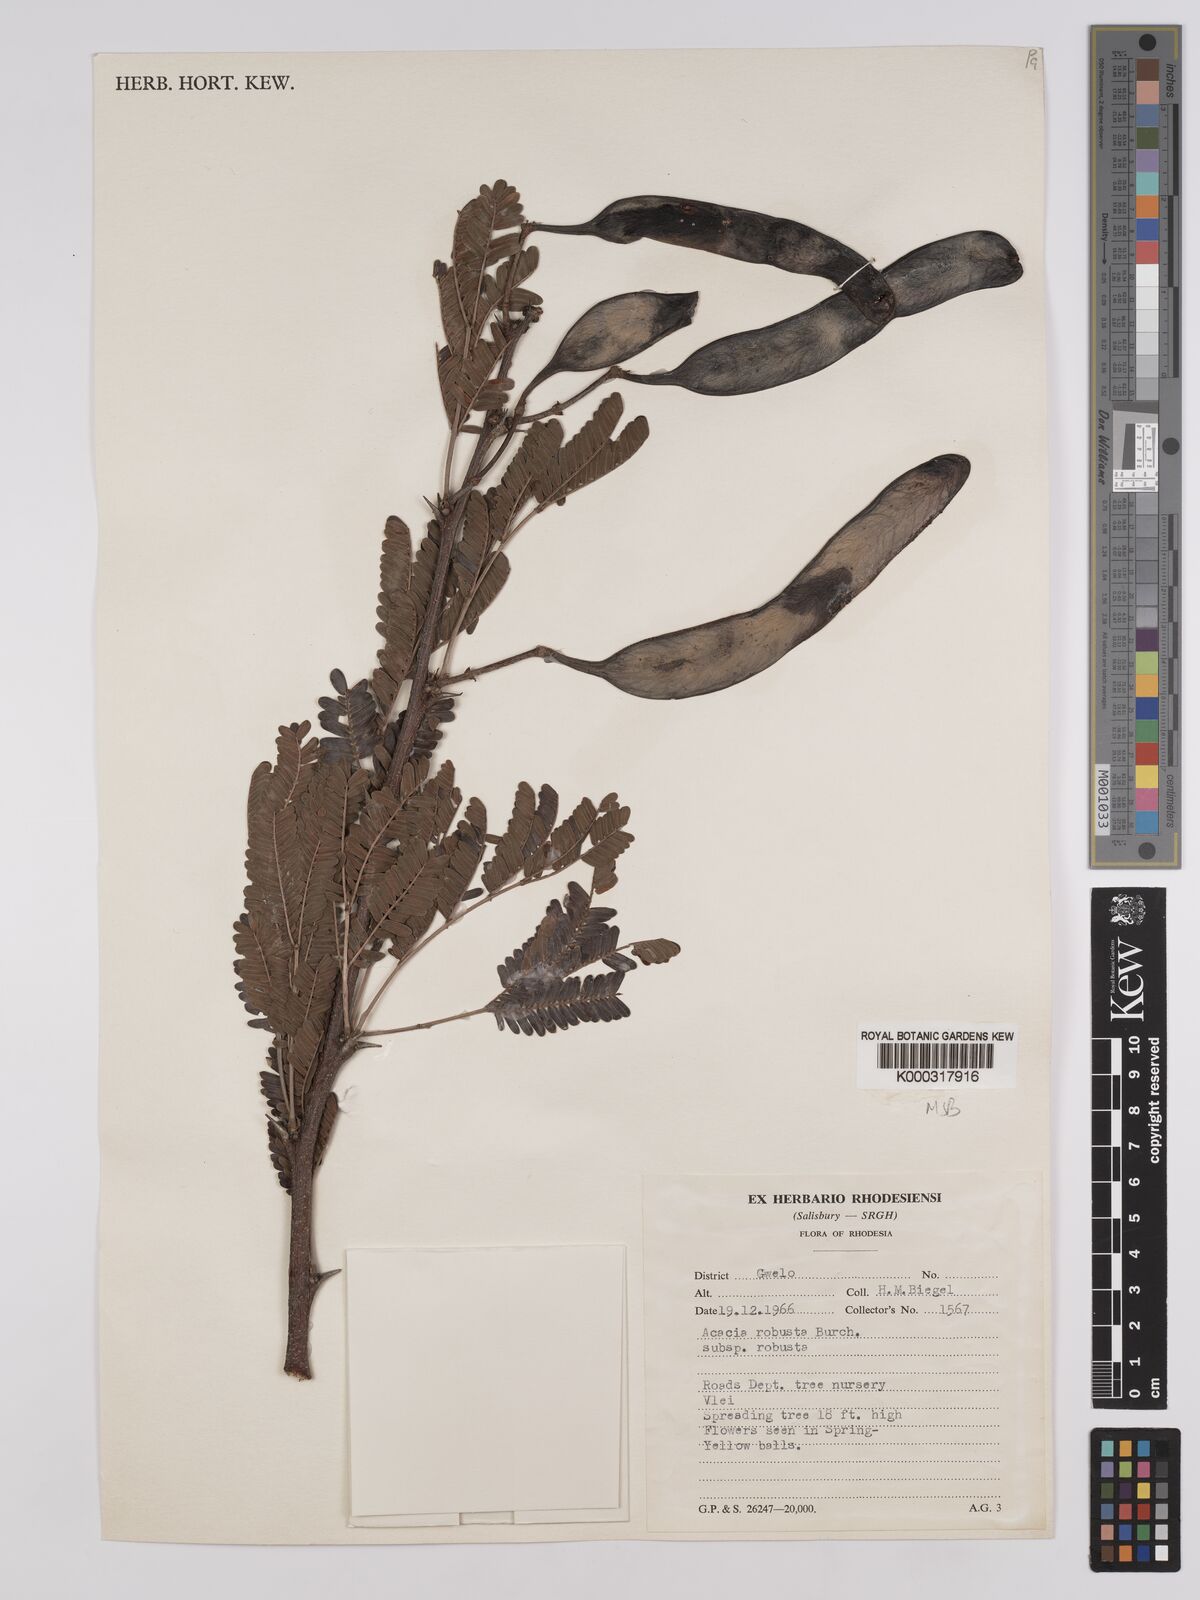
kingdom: Plantae
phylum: Tracheophyta
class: Magnoliopsida
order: Fabales
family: Fabaceae
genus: Vachellia
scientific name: Vachellia robusta
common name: Ankle thorn
